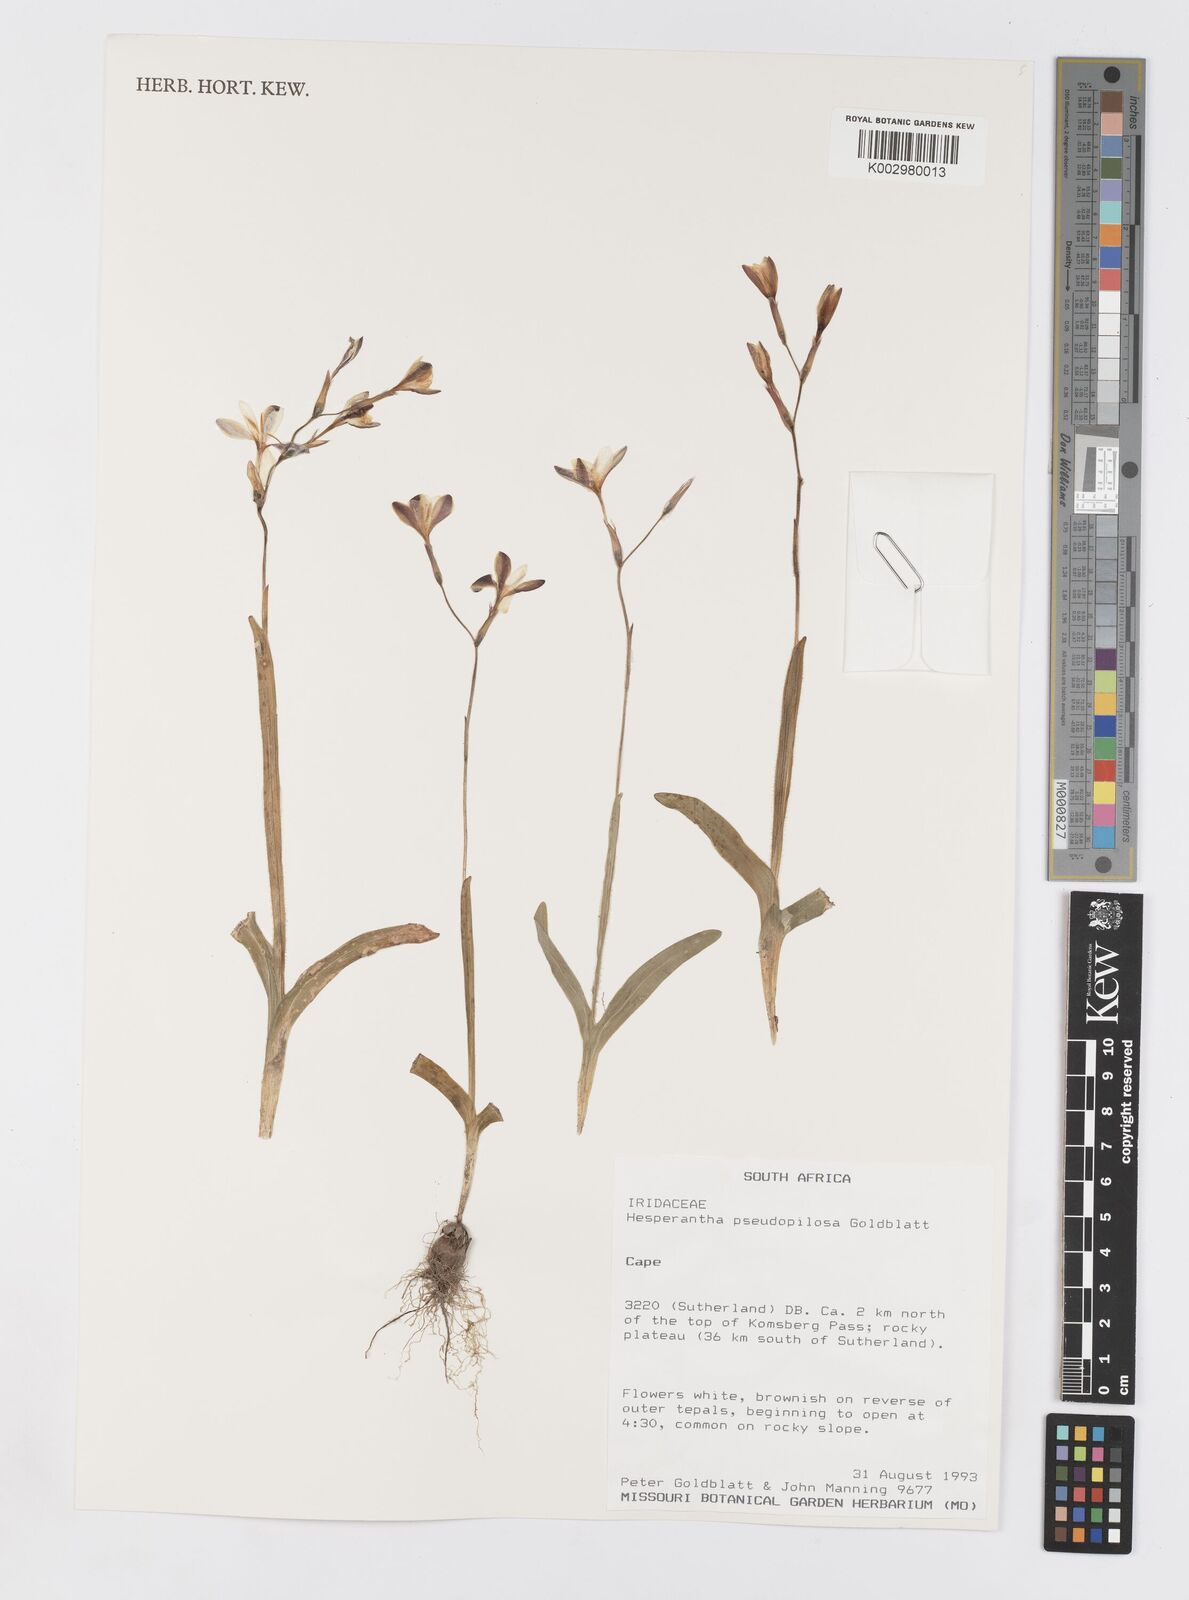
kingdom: Plantae
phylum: Tracheophyta
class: Liliopsida
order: Asparagales
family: Iridaceae
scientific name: Iridaceae
